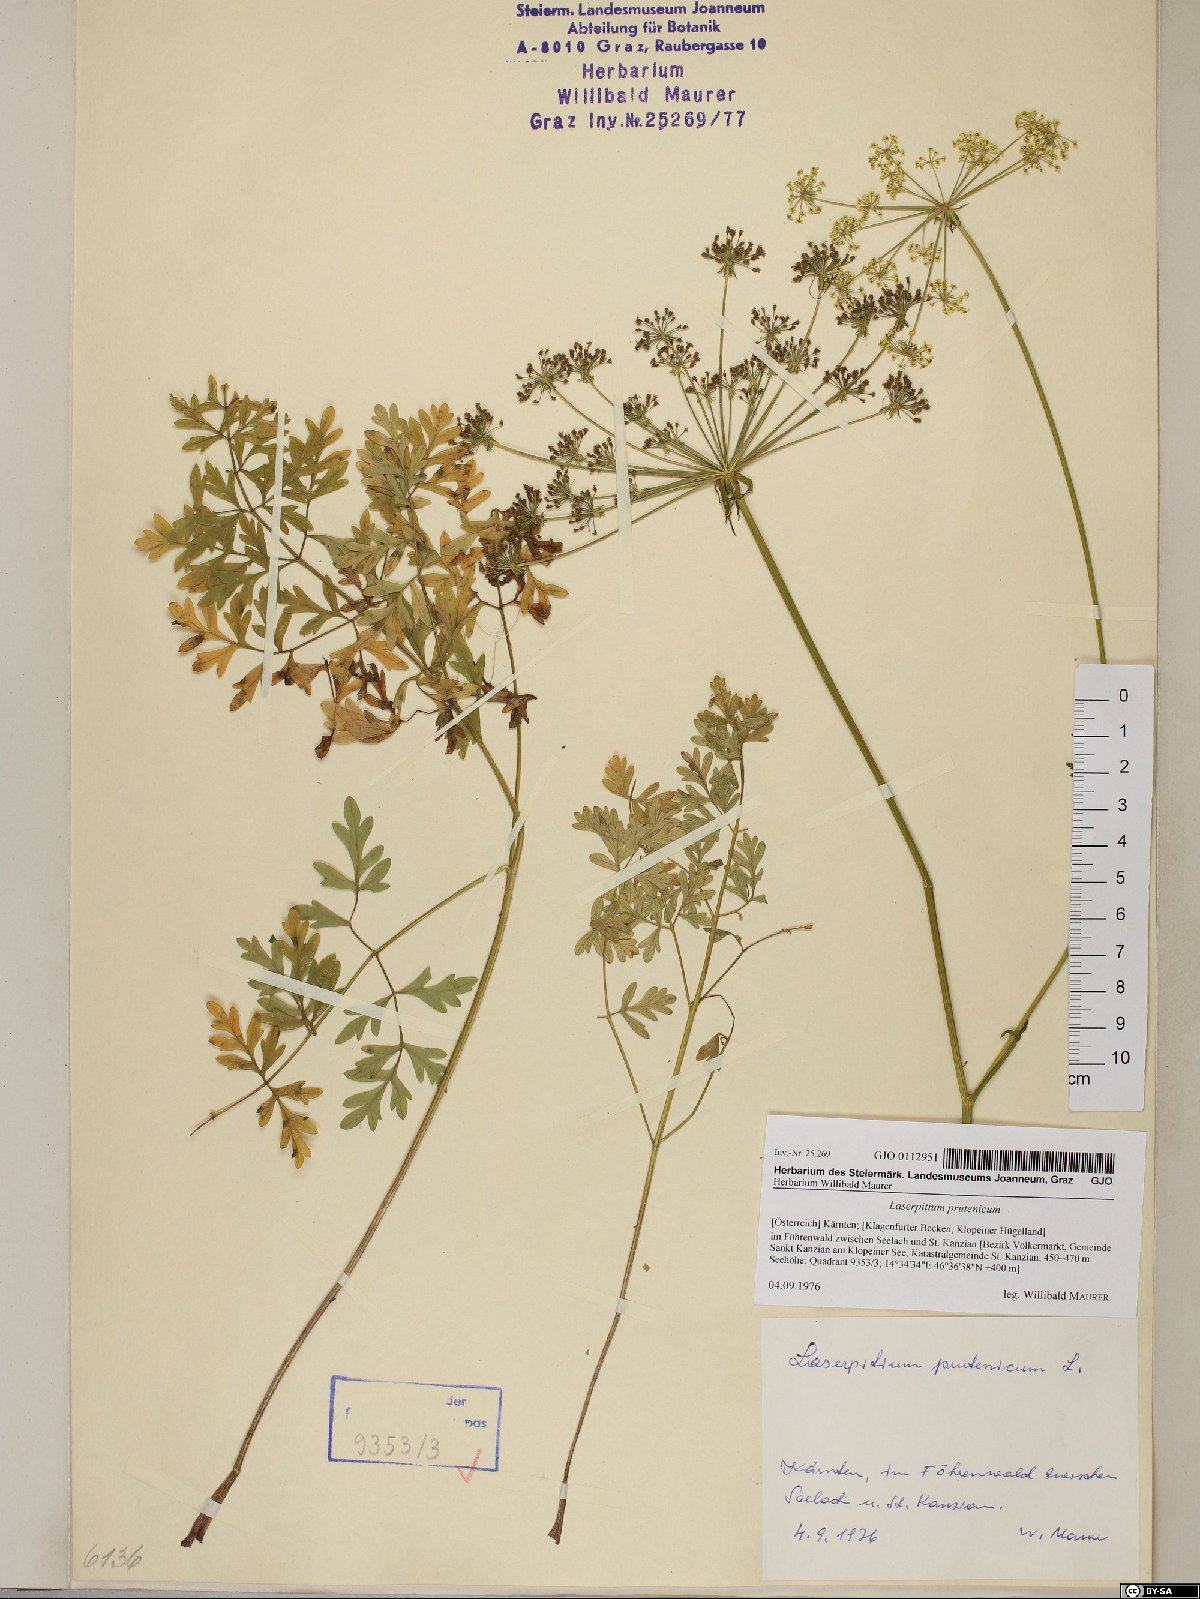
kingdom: Plantae
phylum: Tracheophyta
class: Magnoliopsida
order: Apiales
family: Apiaceae
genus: Silphiodaucus
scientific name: Silphiodaucus prutenicus
